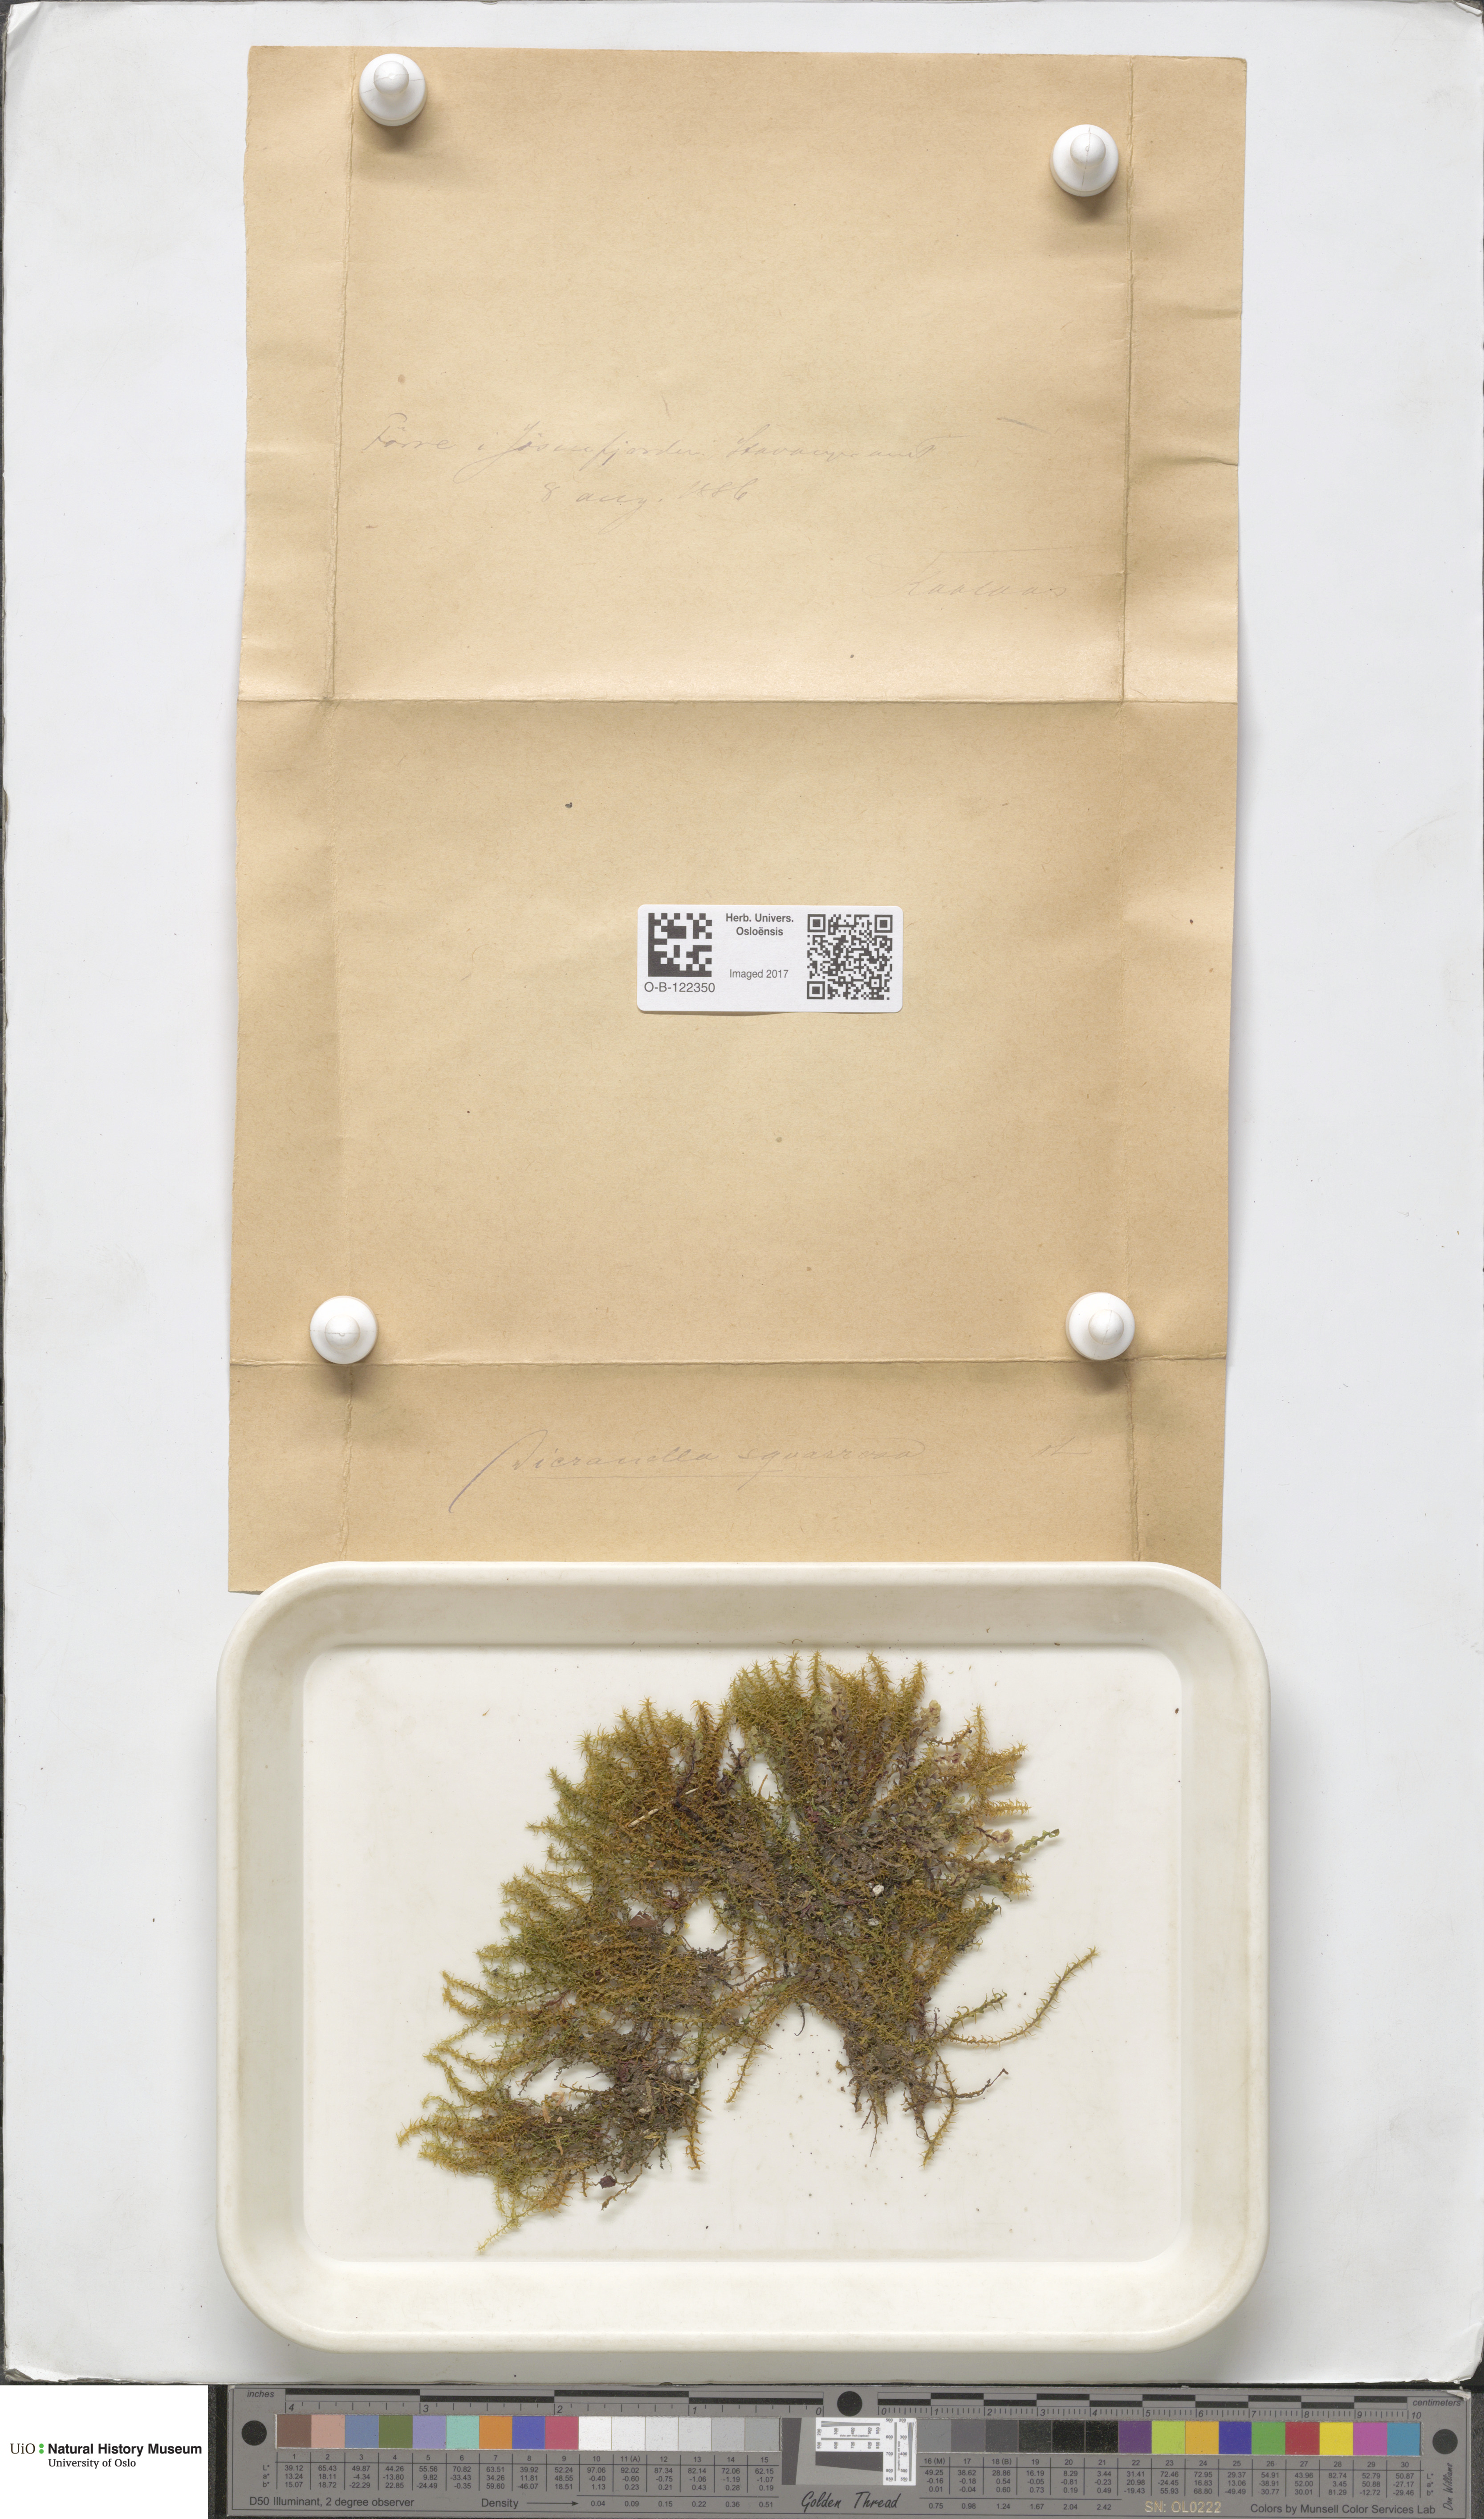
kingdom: Plantae
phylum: Bryophyta
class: Bryopsida
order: Dicranales
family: Aongstroemiaceae
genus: Diobelonella
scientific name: Diobelonella palustris
